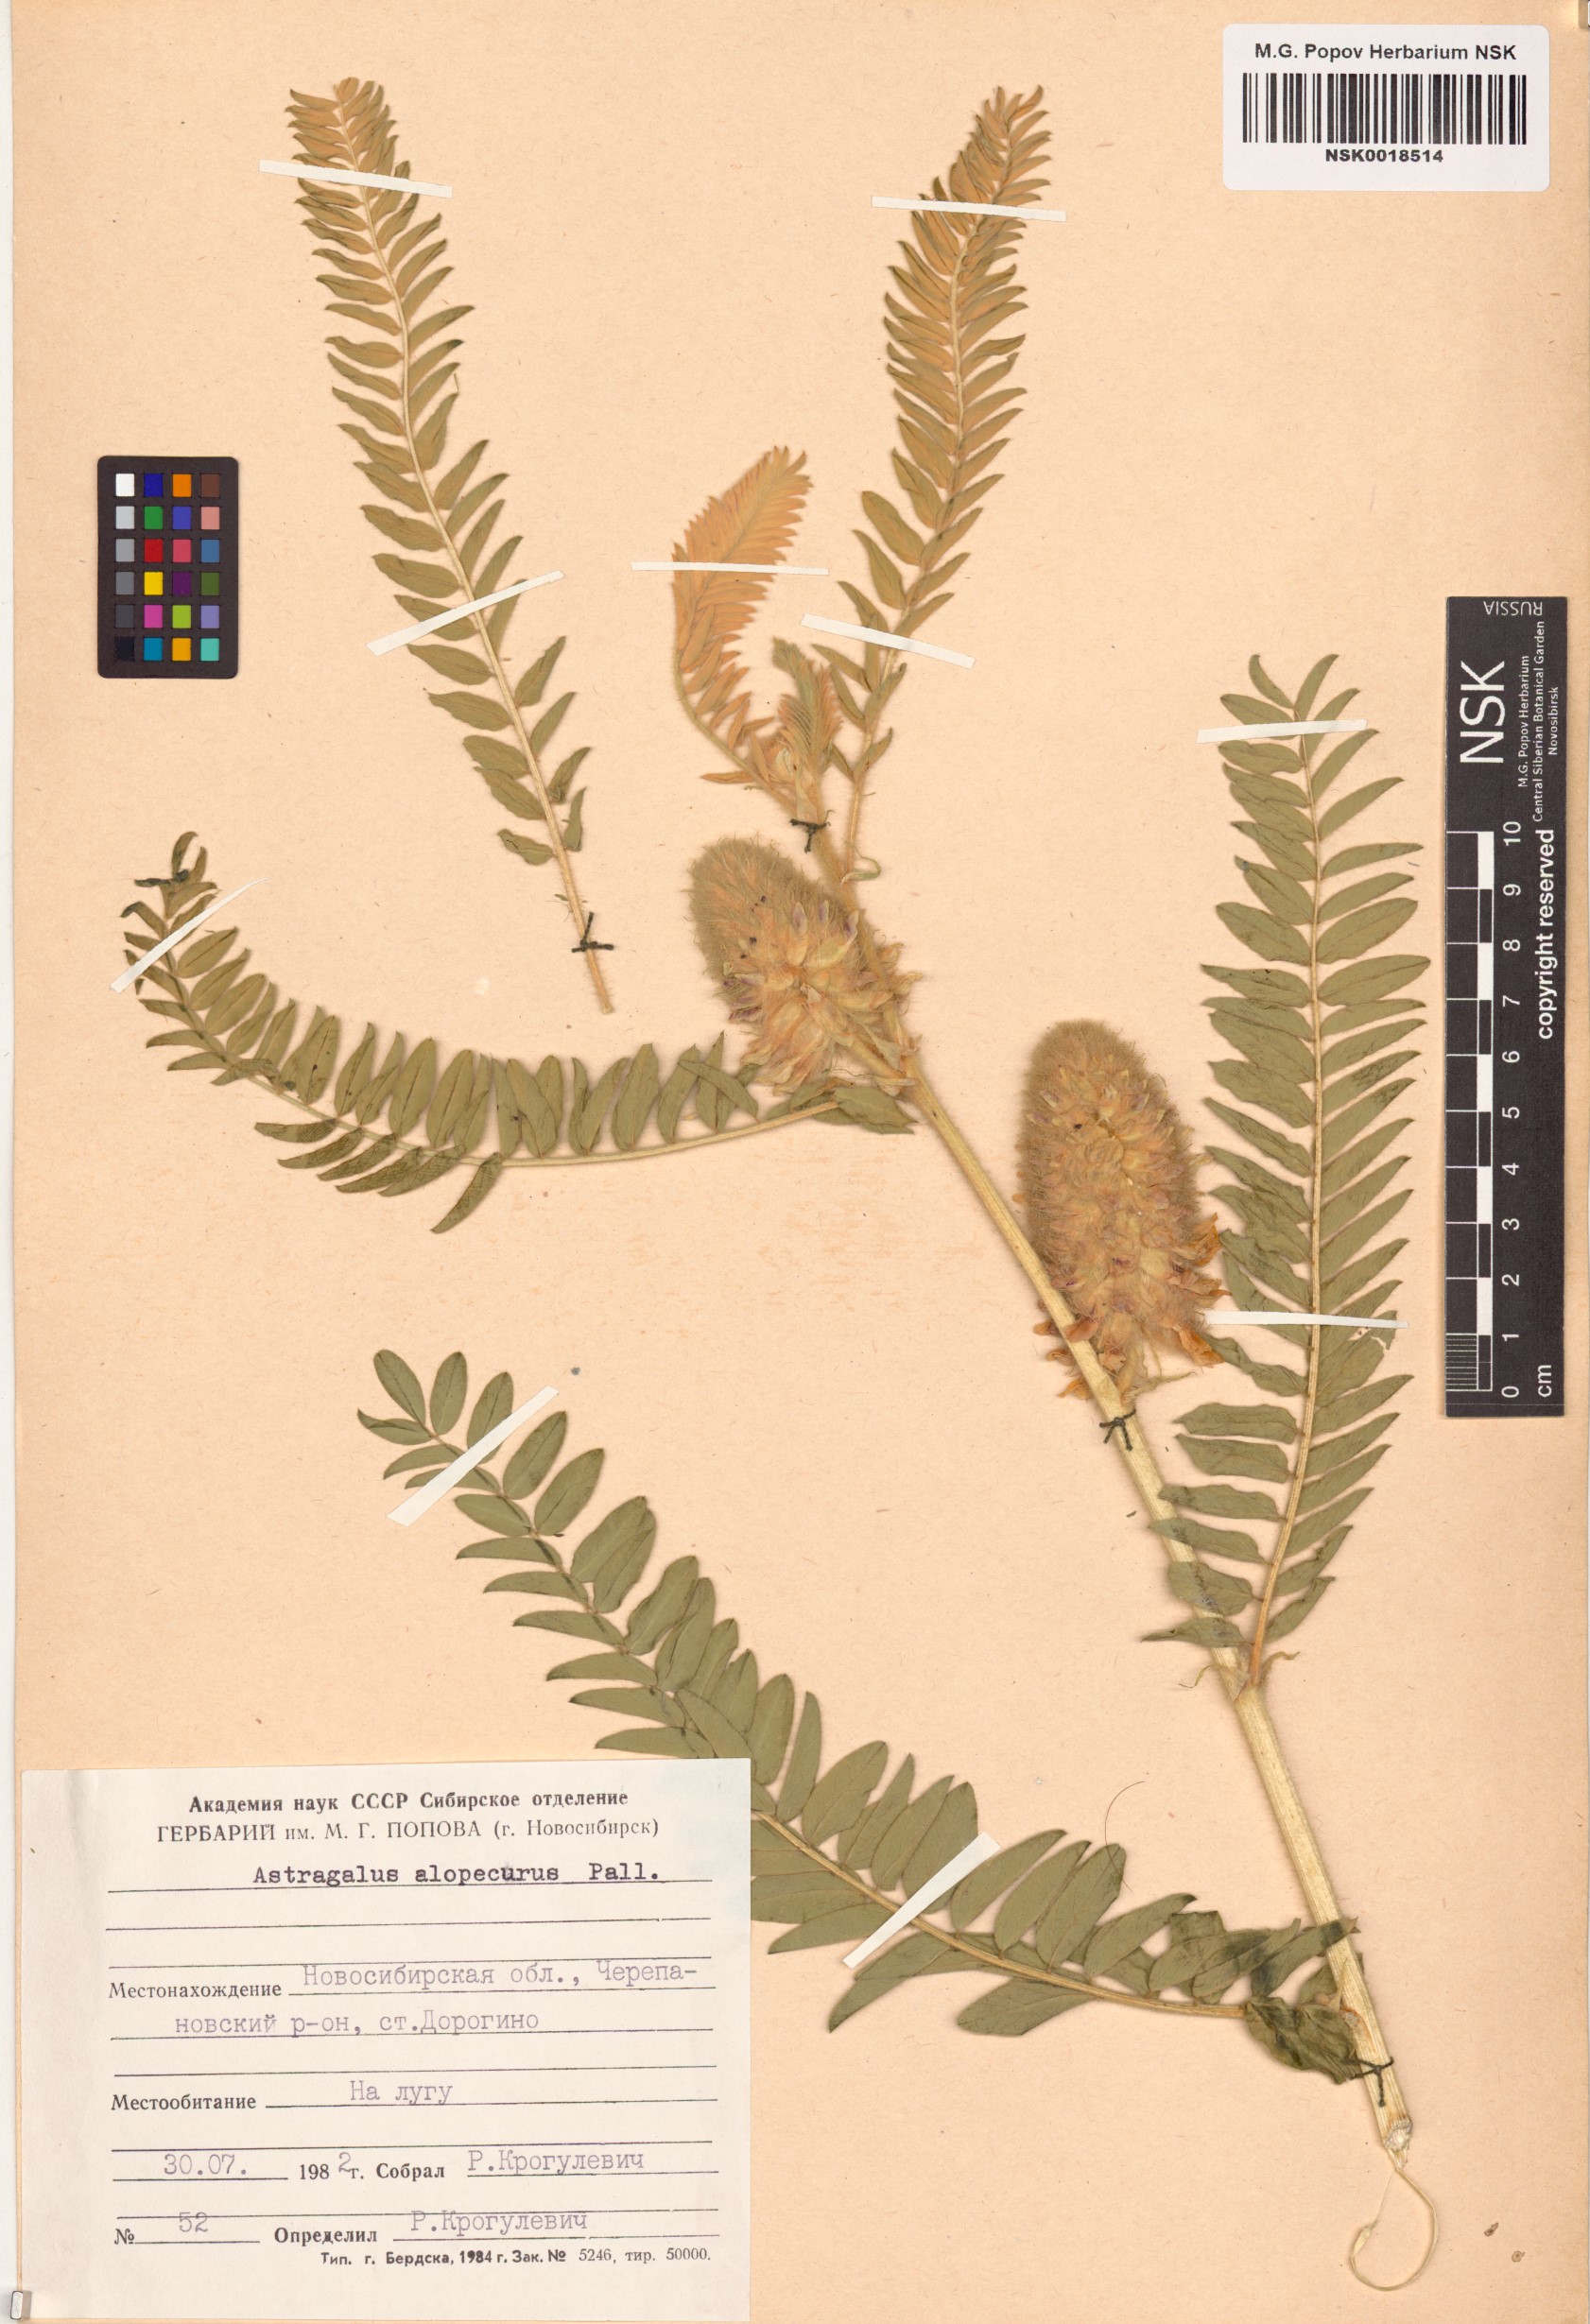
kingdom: Plantae
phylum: Tracheophyta
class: Magnoliopsida
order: Fabales
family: Fabaceae
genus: Astragalus
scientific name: Astragalus alopecurus
